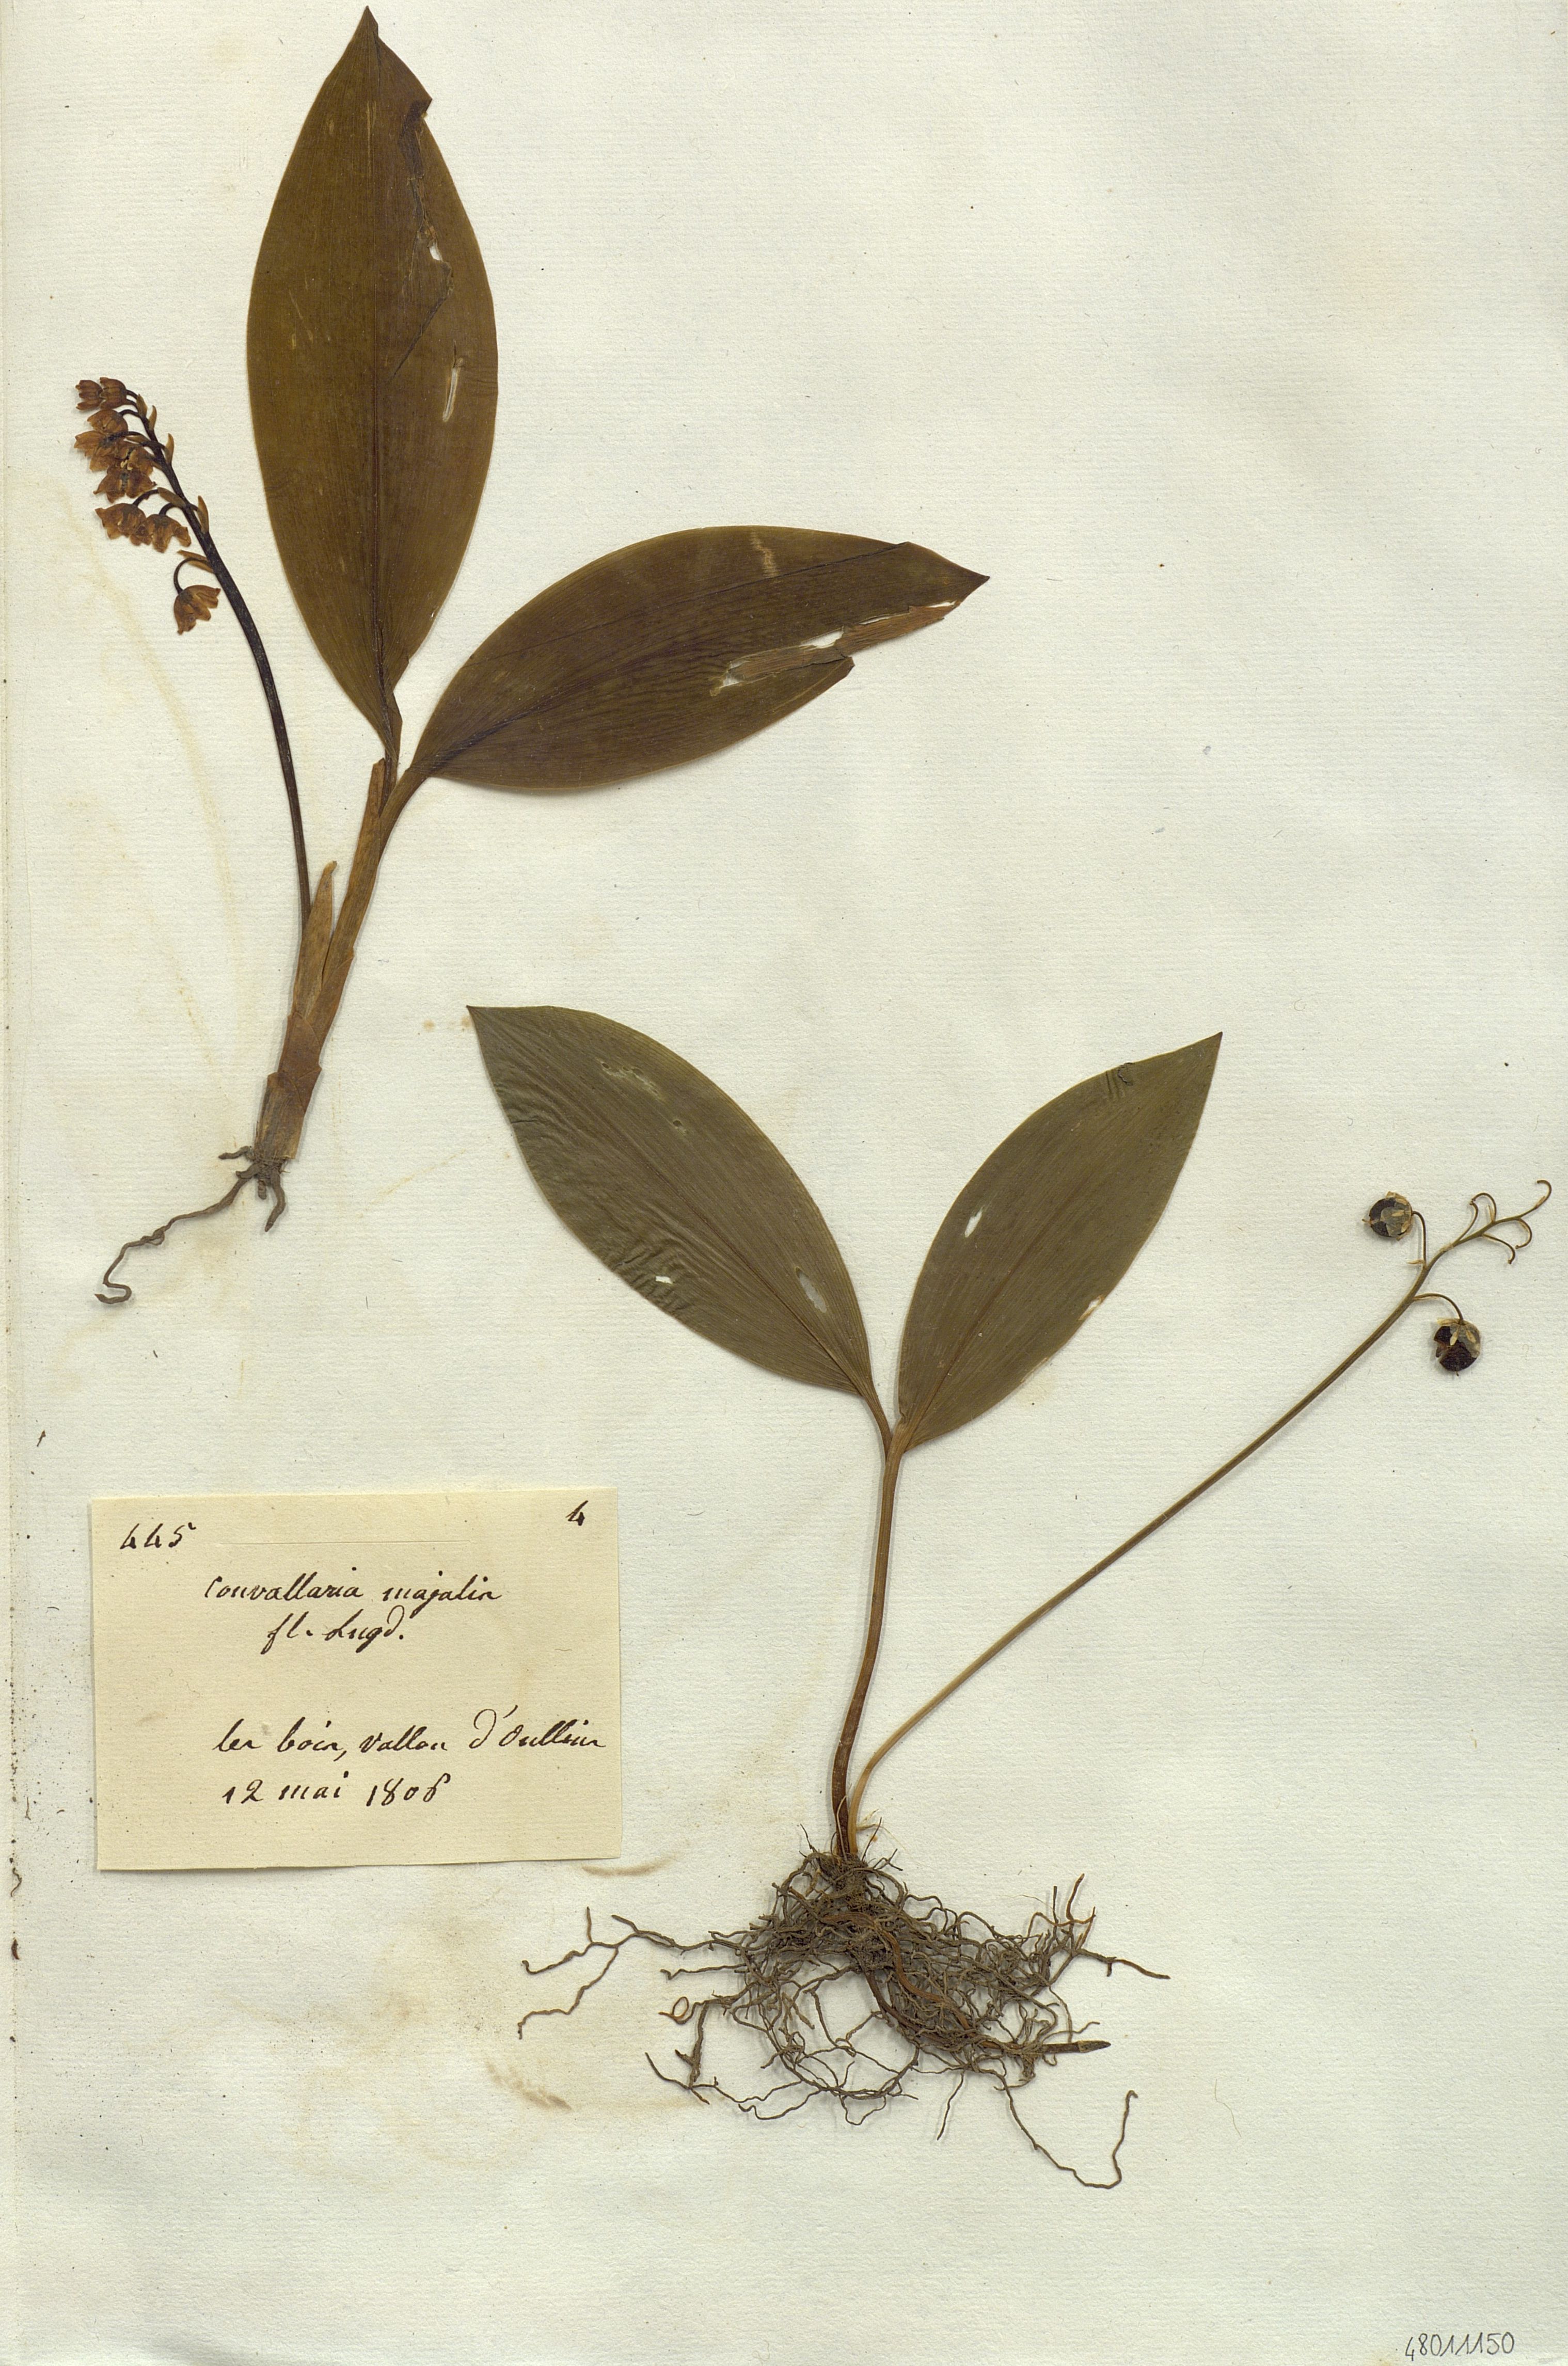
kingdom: Plantae
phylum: Tracheophyta
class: Liliopsida
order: Liliales
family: Liliaceae
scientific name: Liliaceae
